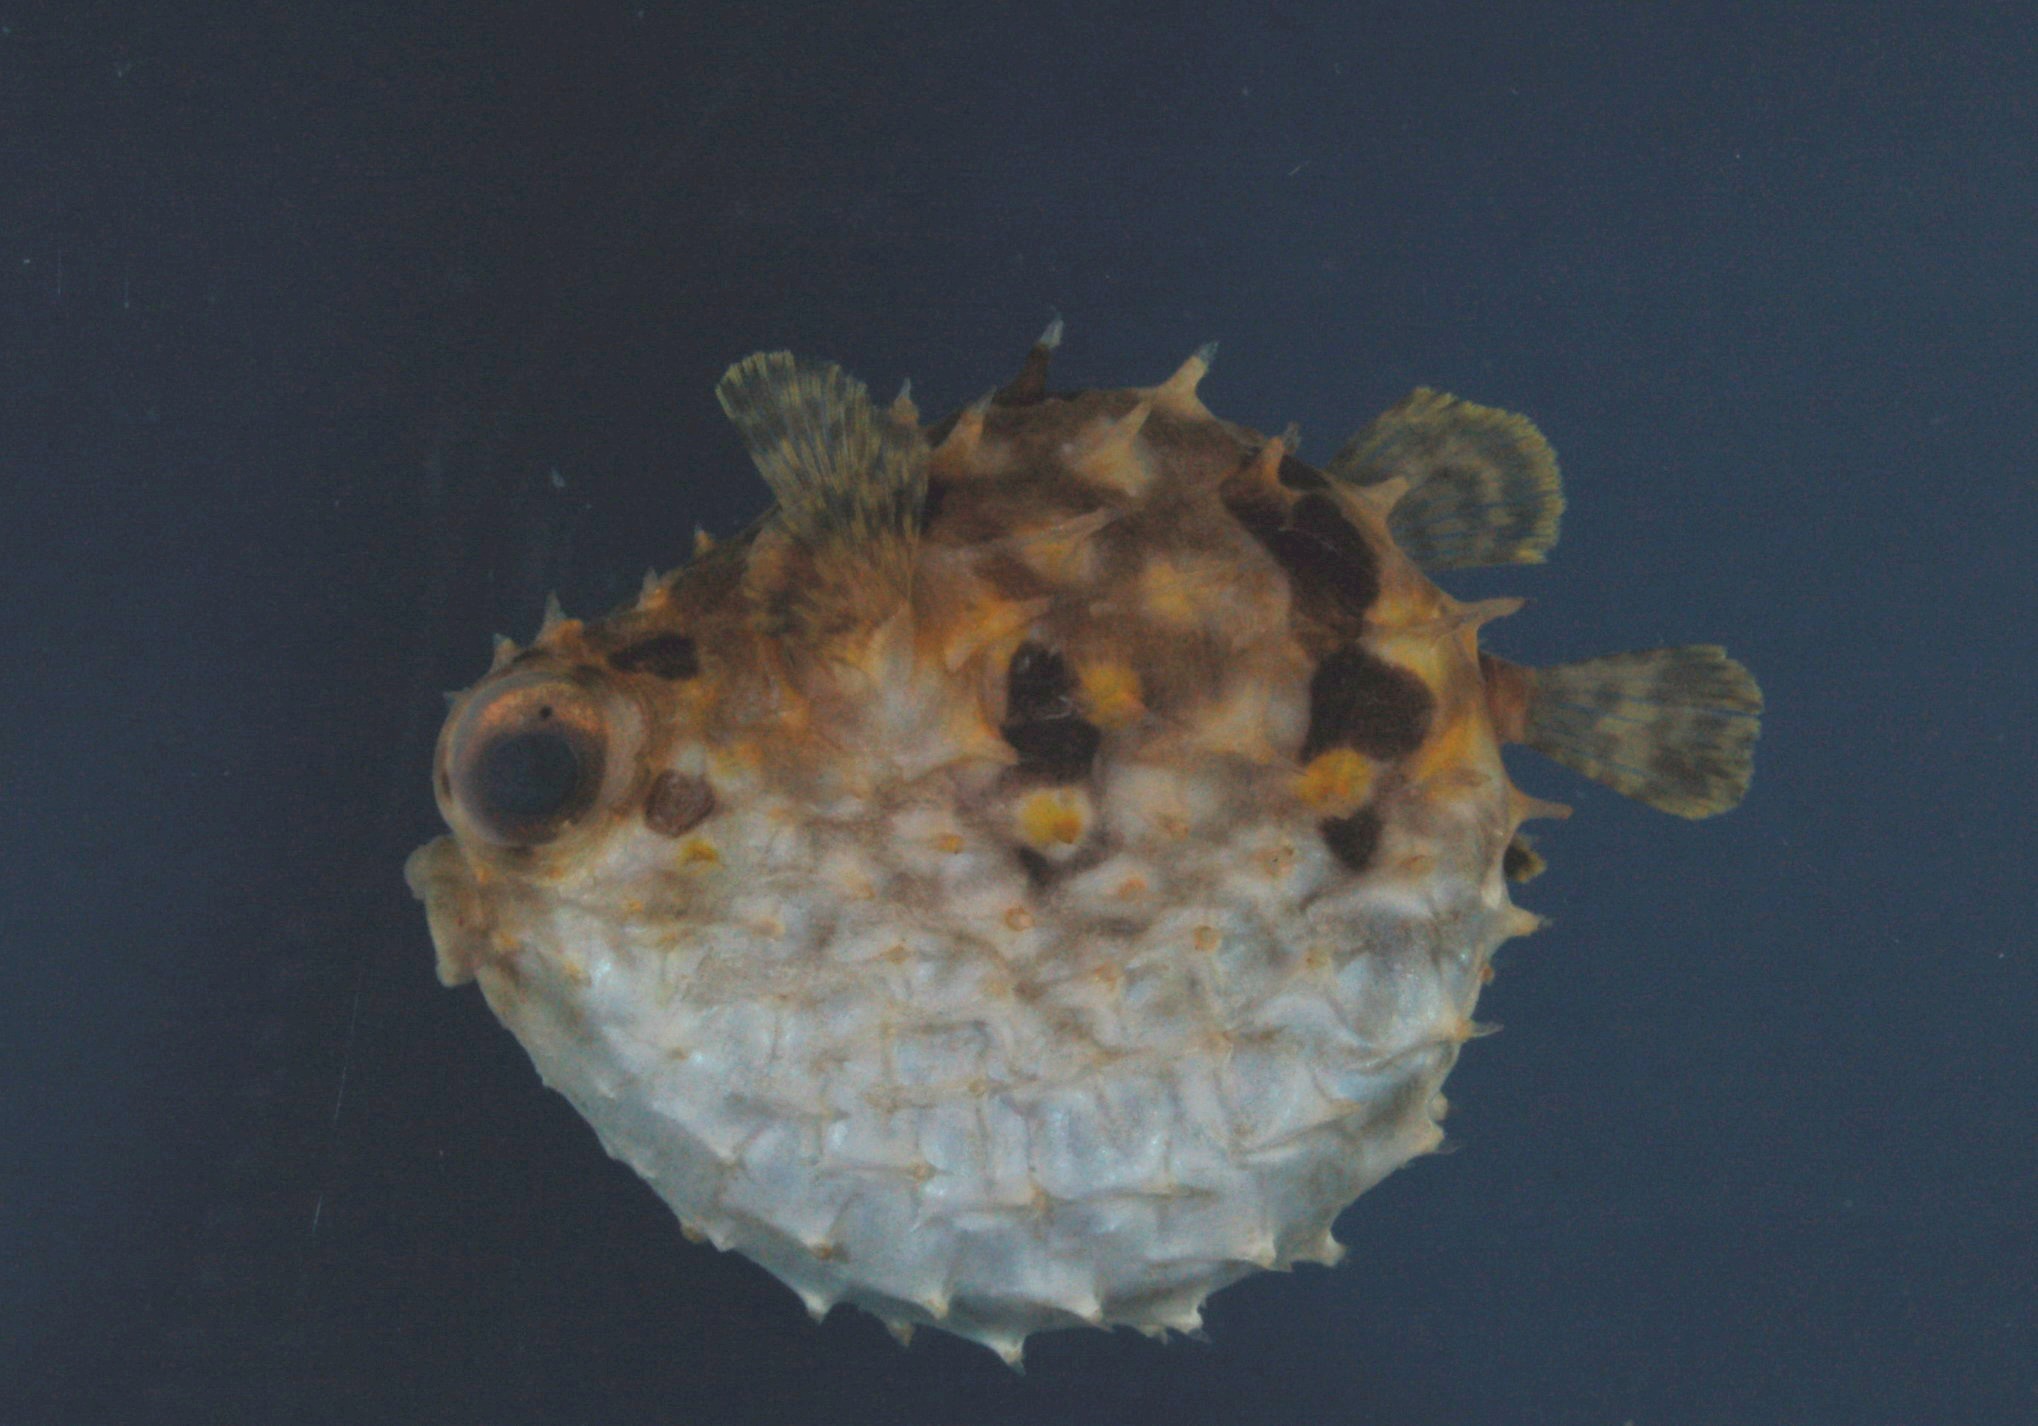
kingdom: Animalia
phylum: Chordata
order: Tetraodontiformes
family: Diodontidae
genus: Cyclichthys
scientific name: Cyclichthys orbicularis
